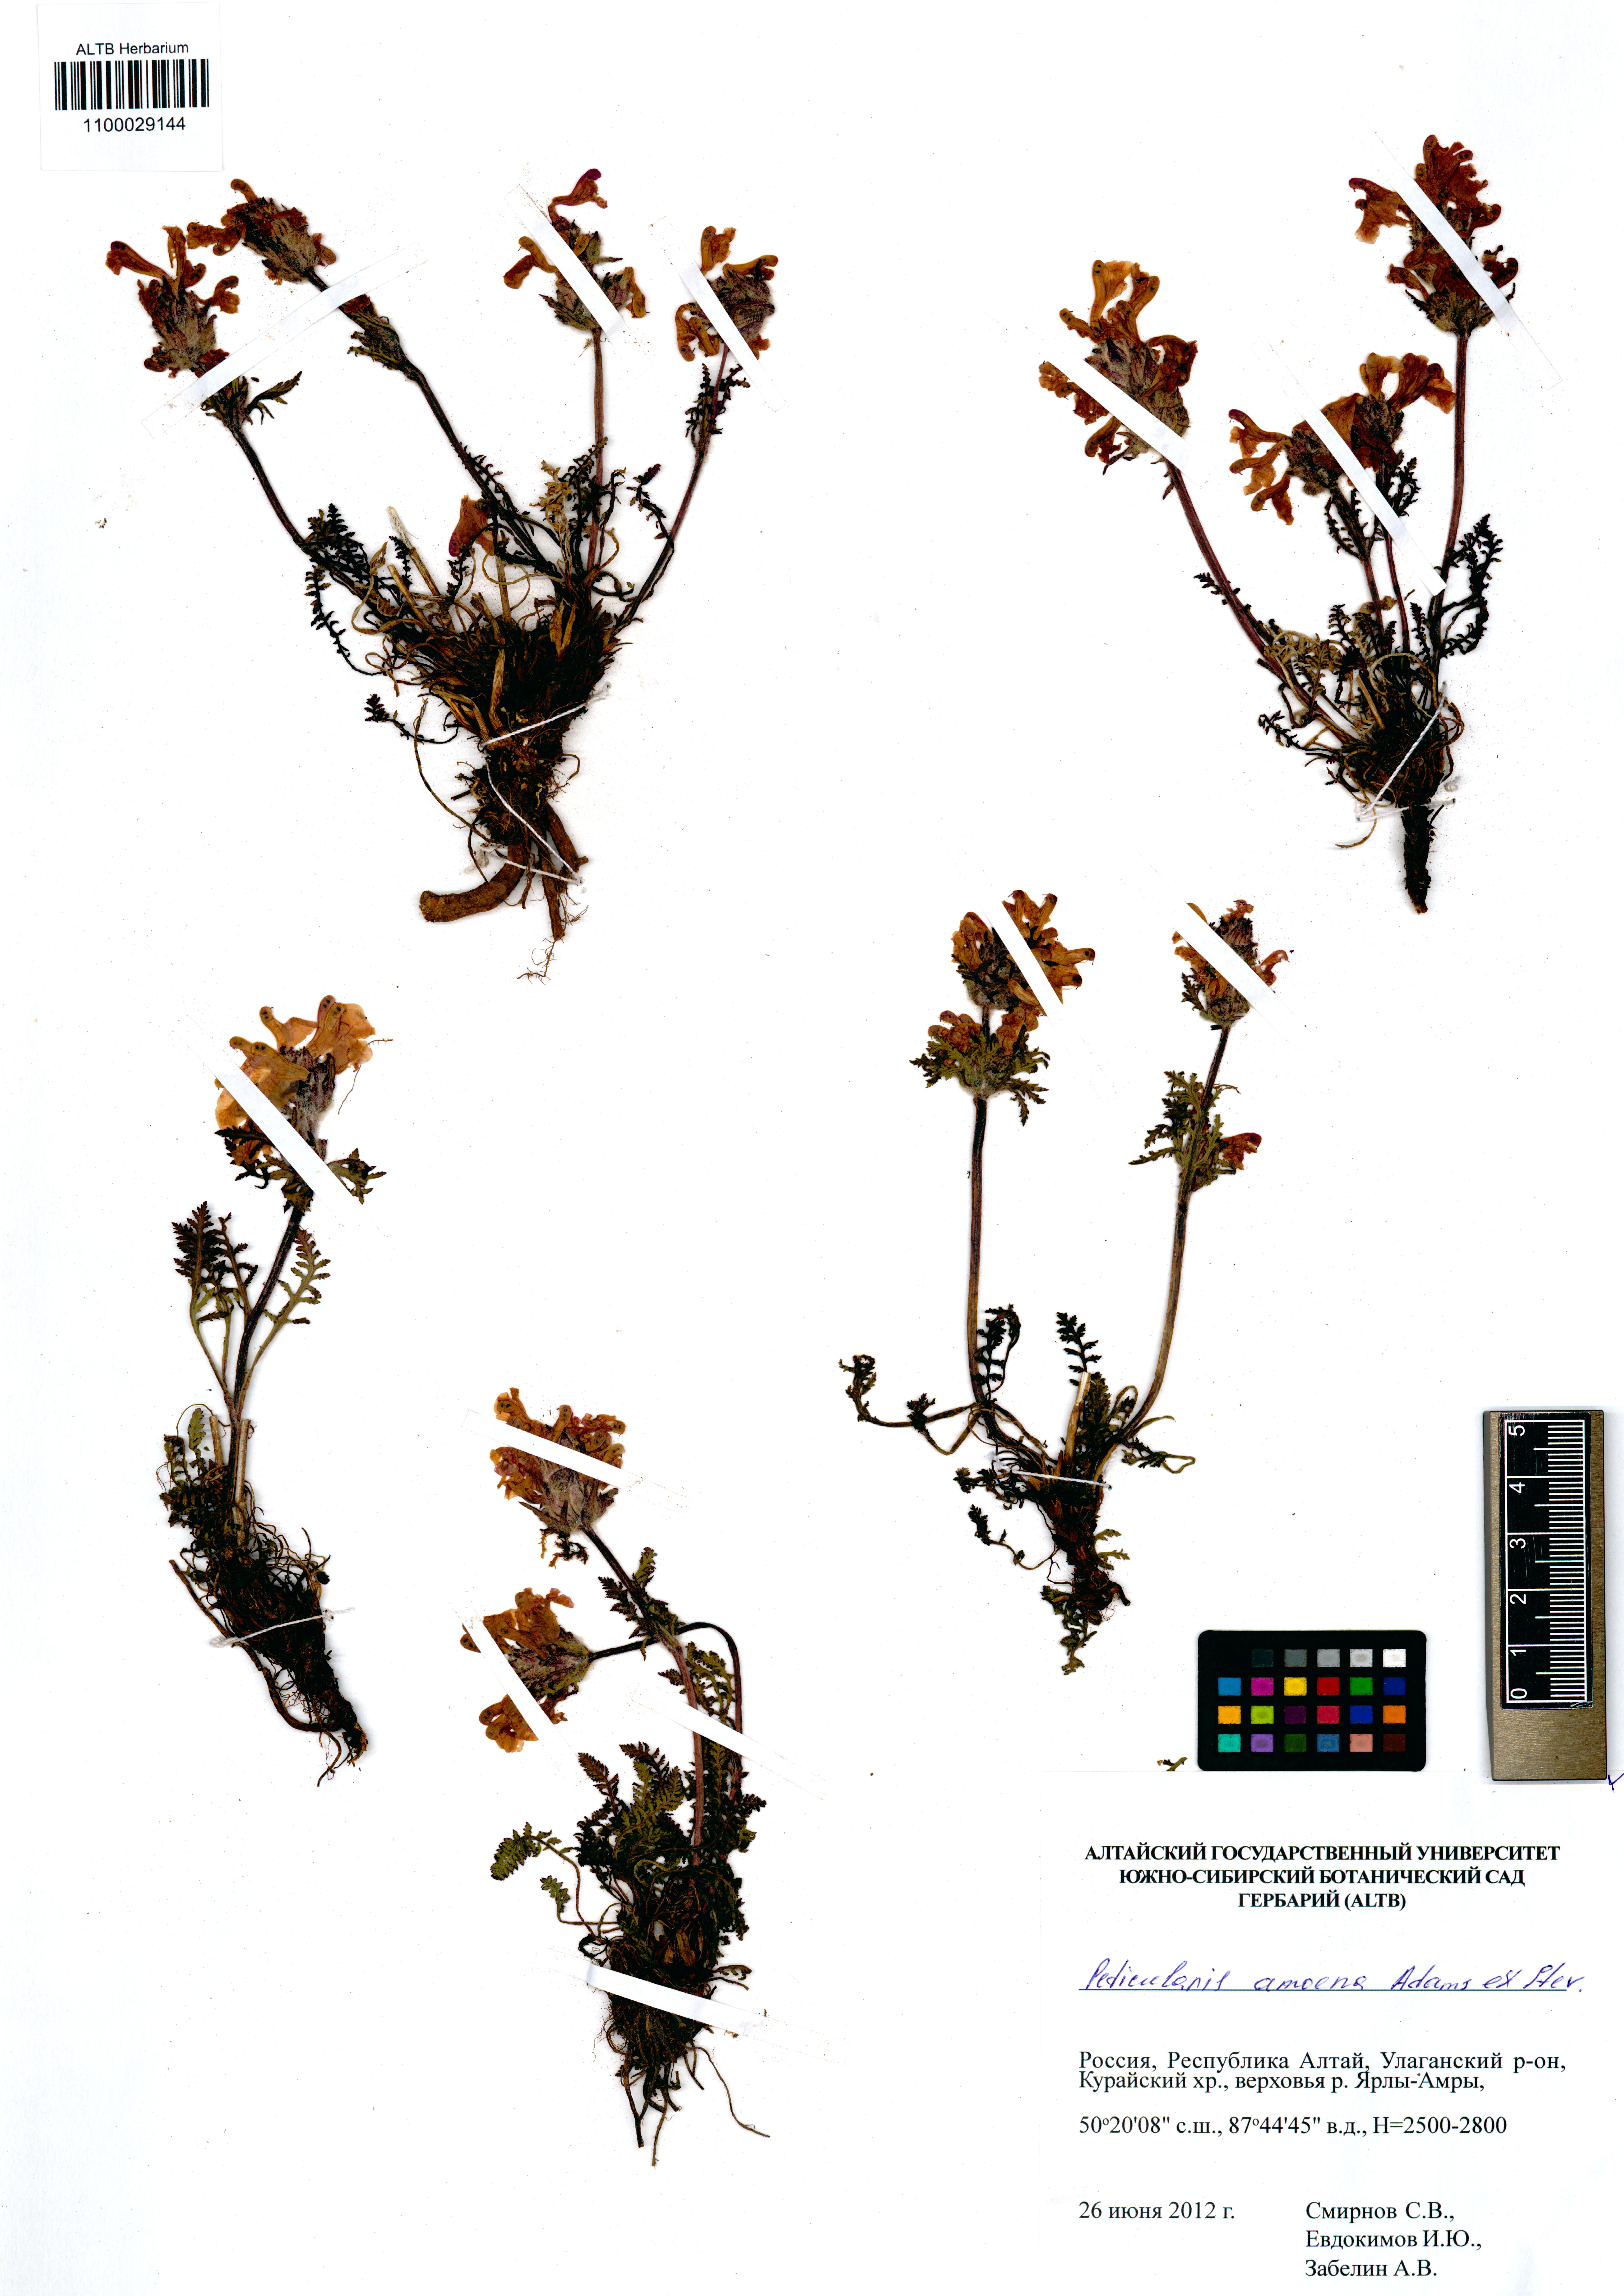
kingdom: Plantae
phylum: Tracheophyta
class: Magnoliopsida
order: Lamiales
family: Orobanchaceae
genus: Pedicularis
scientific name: Pedicularis amoena
